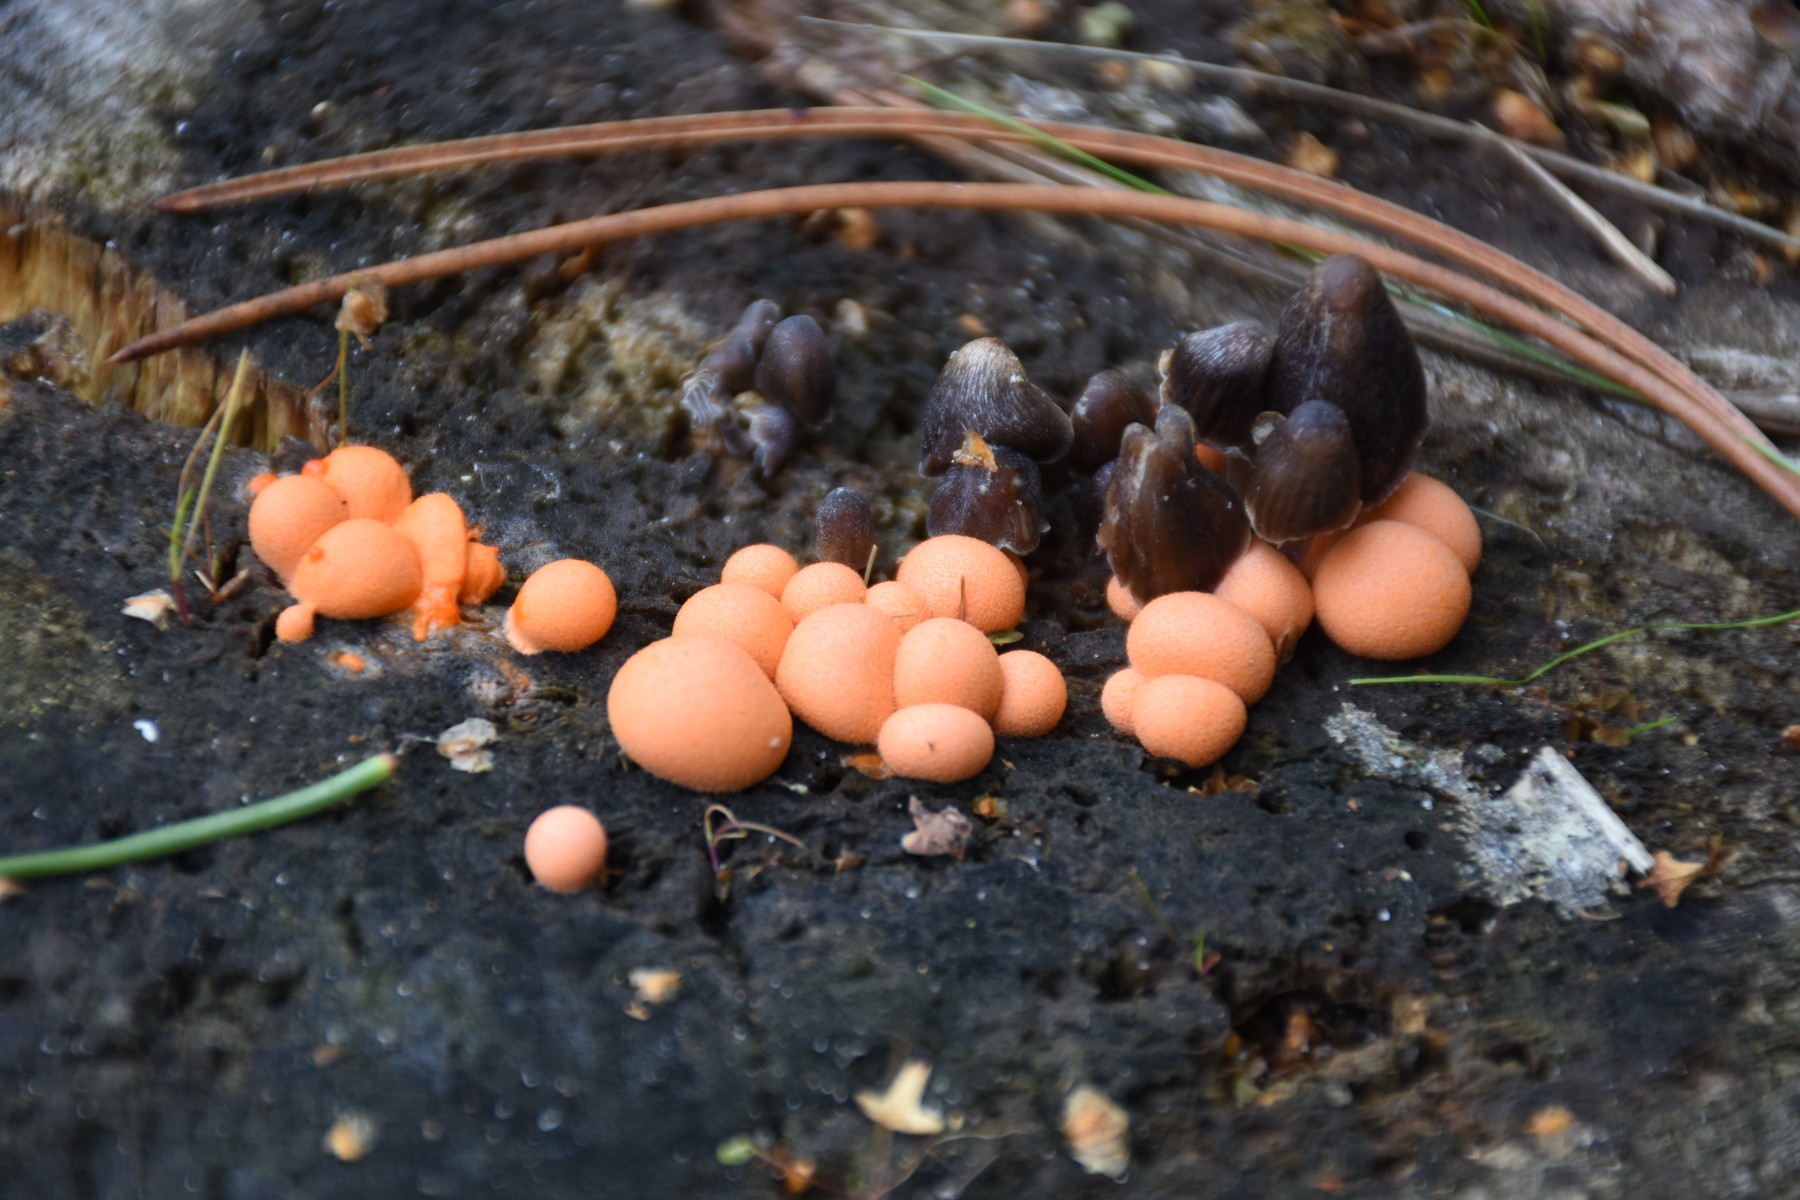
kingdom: Protozoa
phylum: Mycetozoa
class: Myxomycetes
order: Cribrariales
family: Tubiferaceae
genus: Lycogala
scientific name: Lycogala epidendrum
